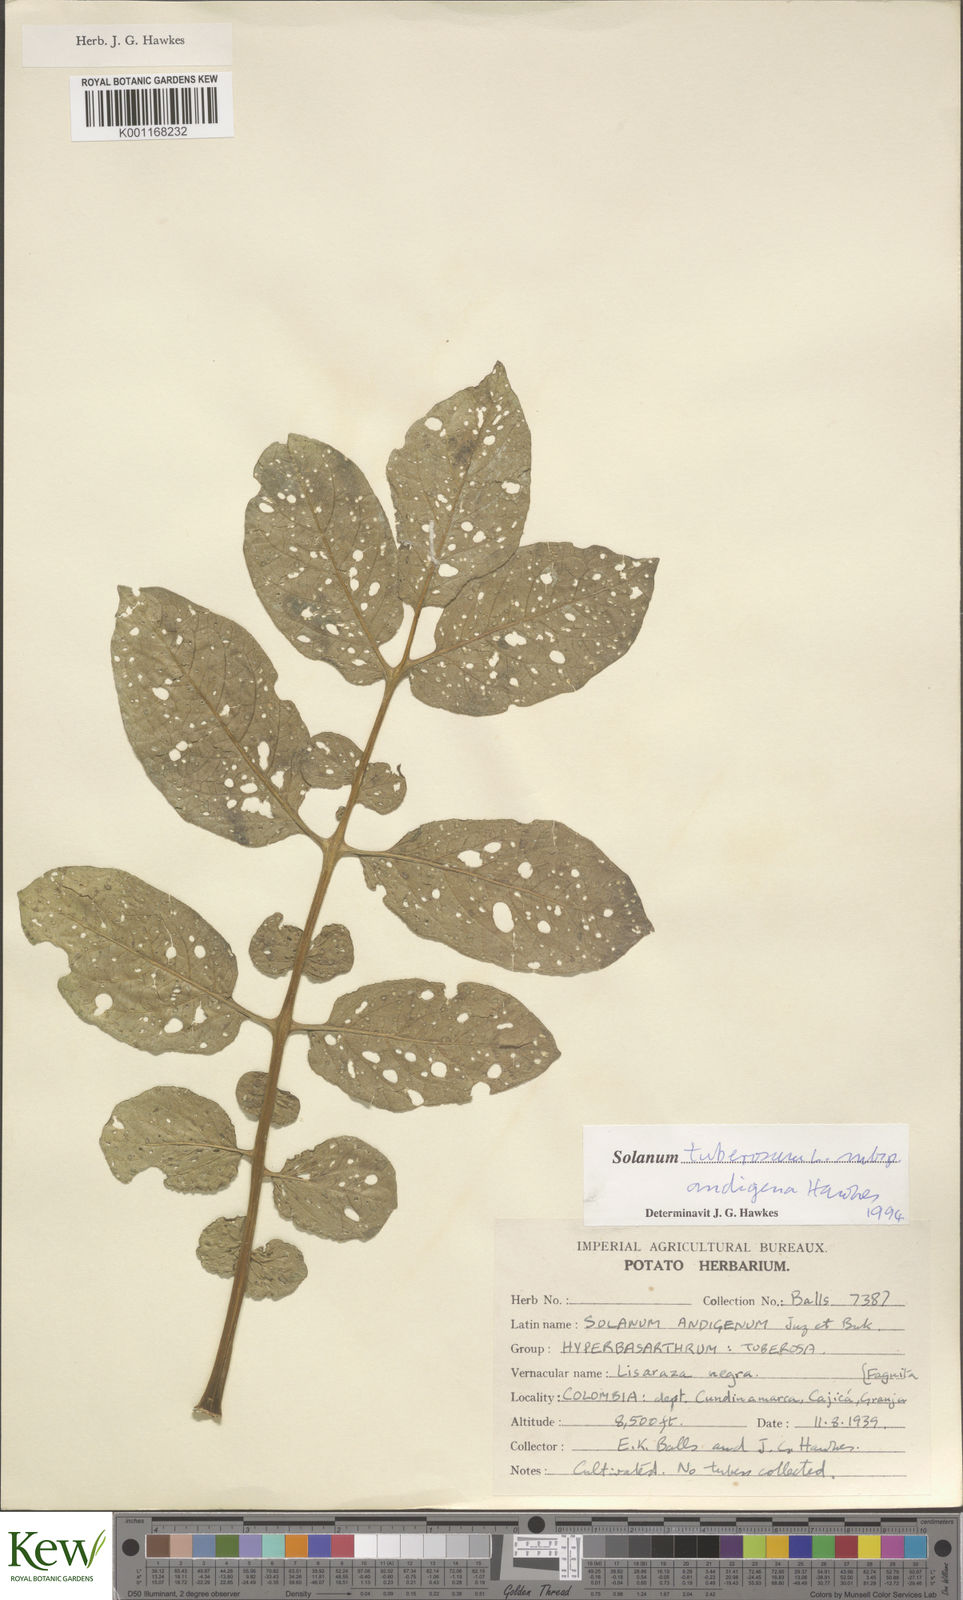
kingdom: Plantae
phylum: Tracheophyta
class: Magnoliopsida
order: Solanales
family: Solanaceae
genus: Solanum
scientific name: Solanum tuberosum
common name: Potato
